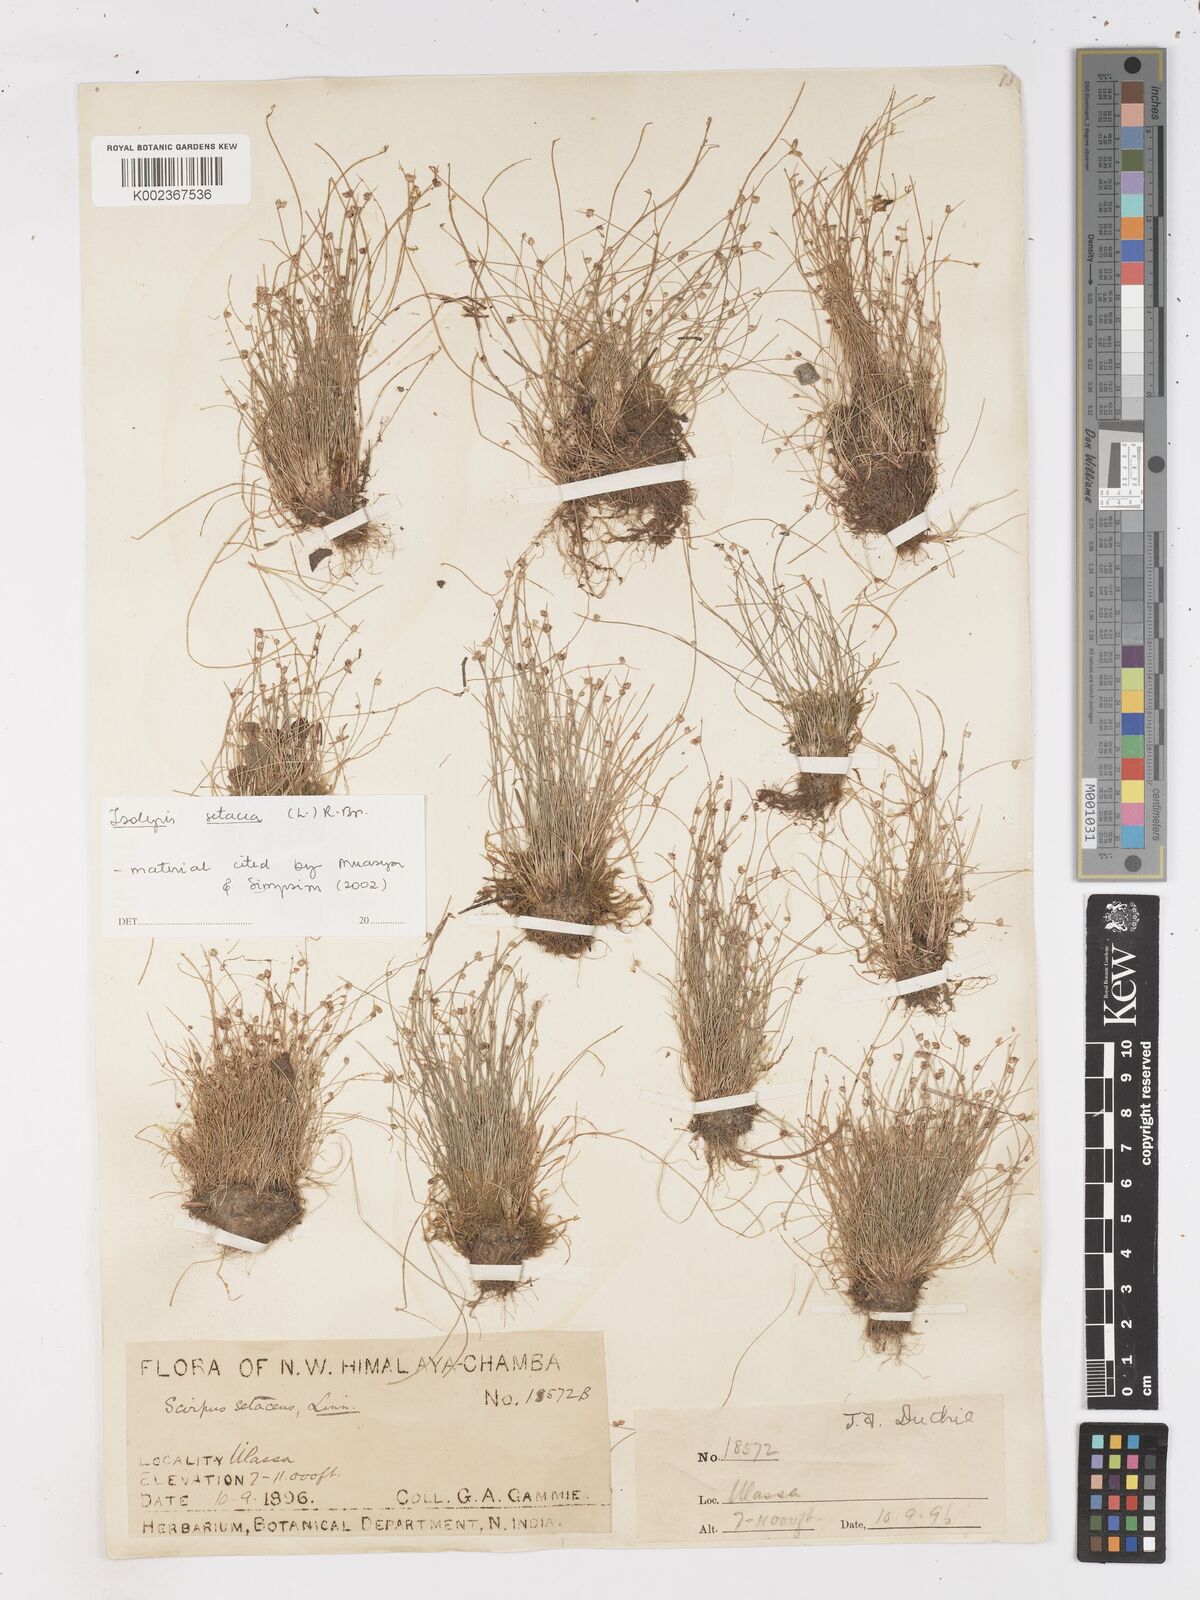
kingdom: Plantae
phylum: Tracheophyta
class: Liliopsida
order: Poales
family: Cyperaceae
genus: Isolepis
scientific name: Isolepis setacea
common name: Bristle club-rush
